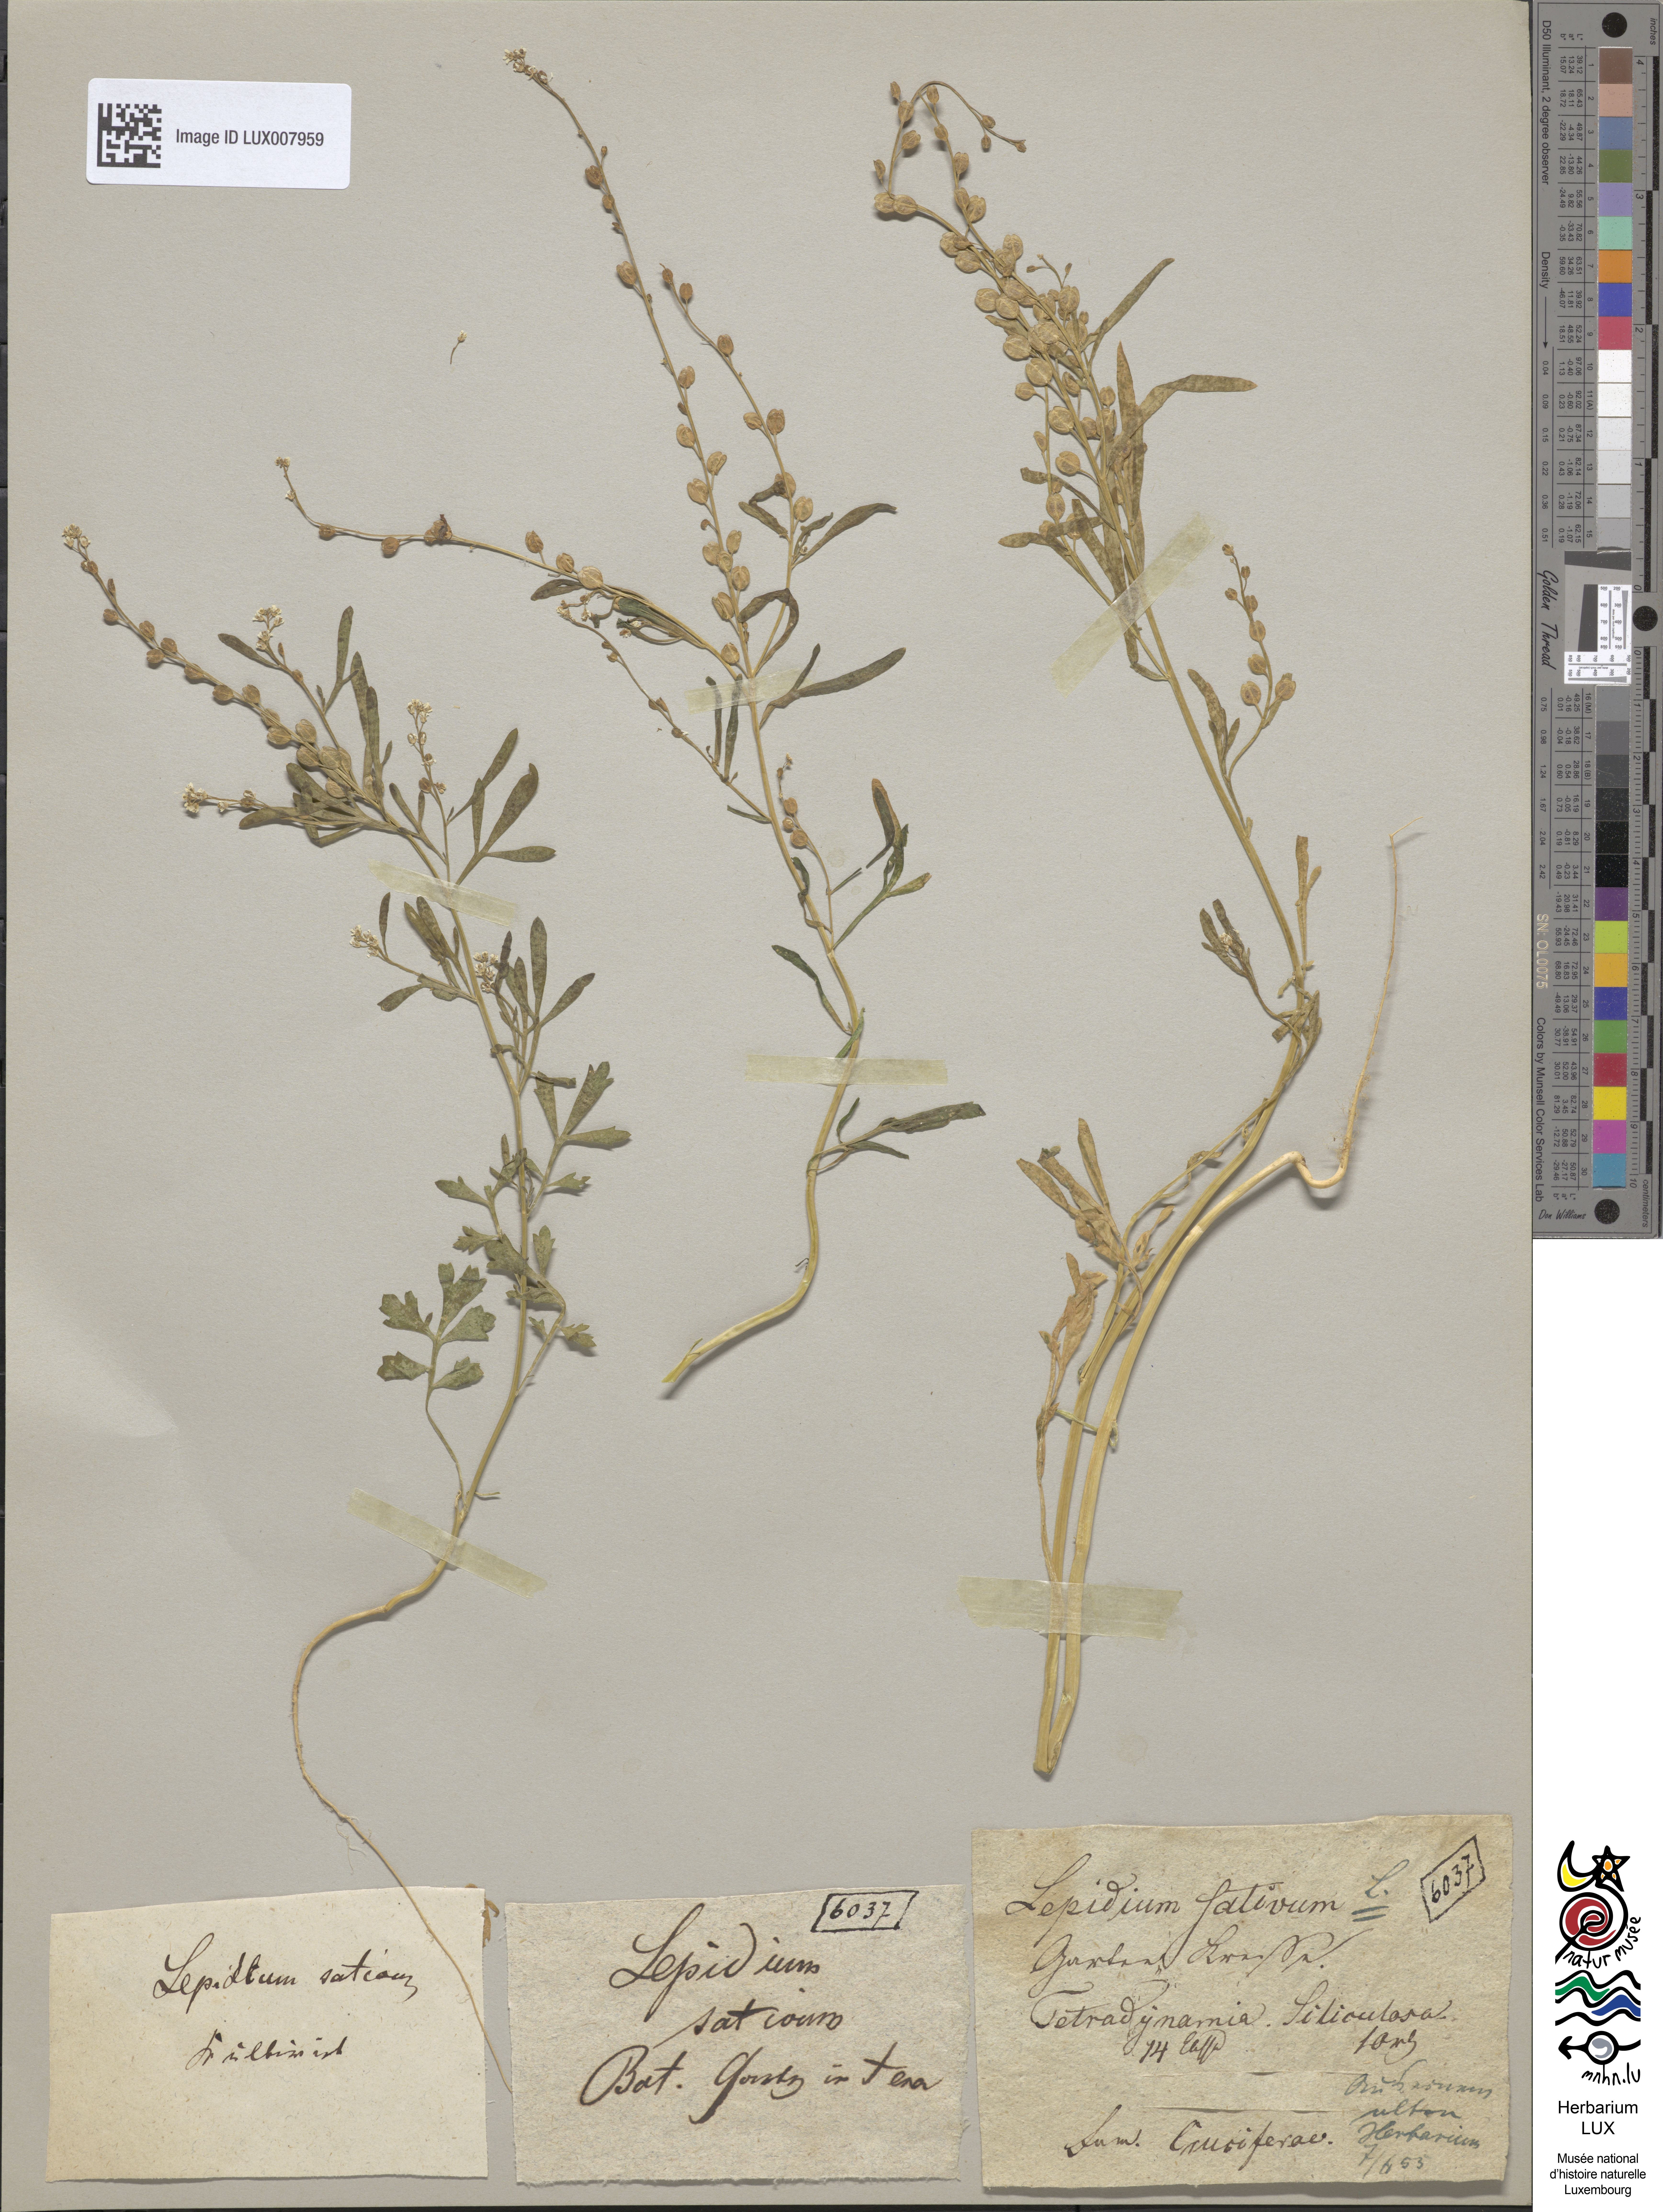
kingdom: Plantae
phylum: Tracheophyta
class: Magnoliopsida
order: Brassicales
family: Brassicaceae
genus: Lepidium
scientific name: Lepidium sativum
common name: Garden cress
